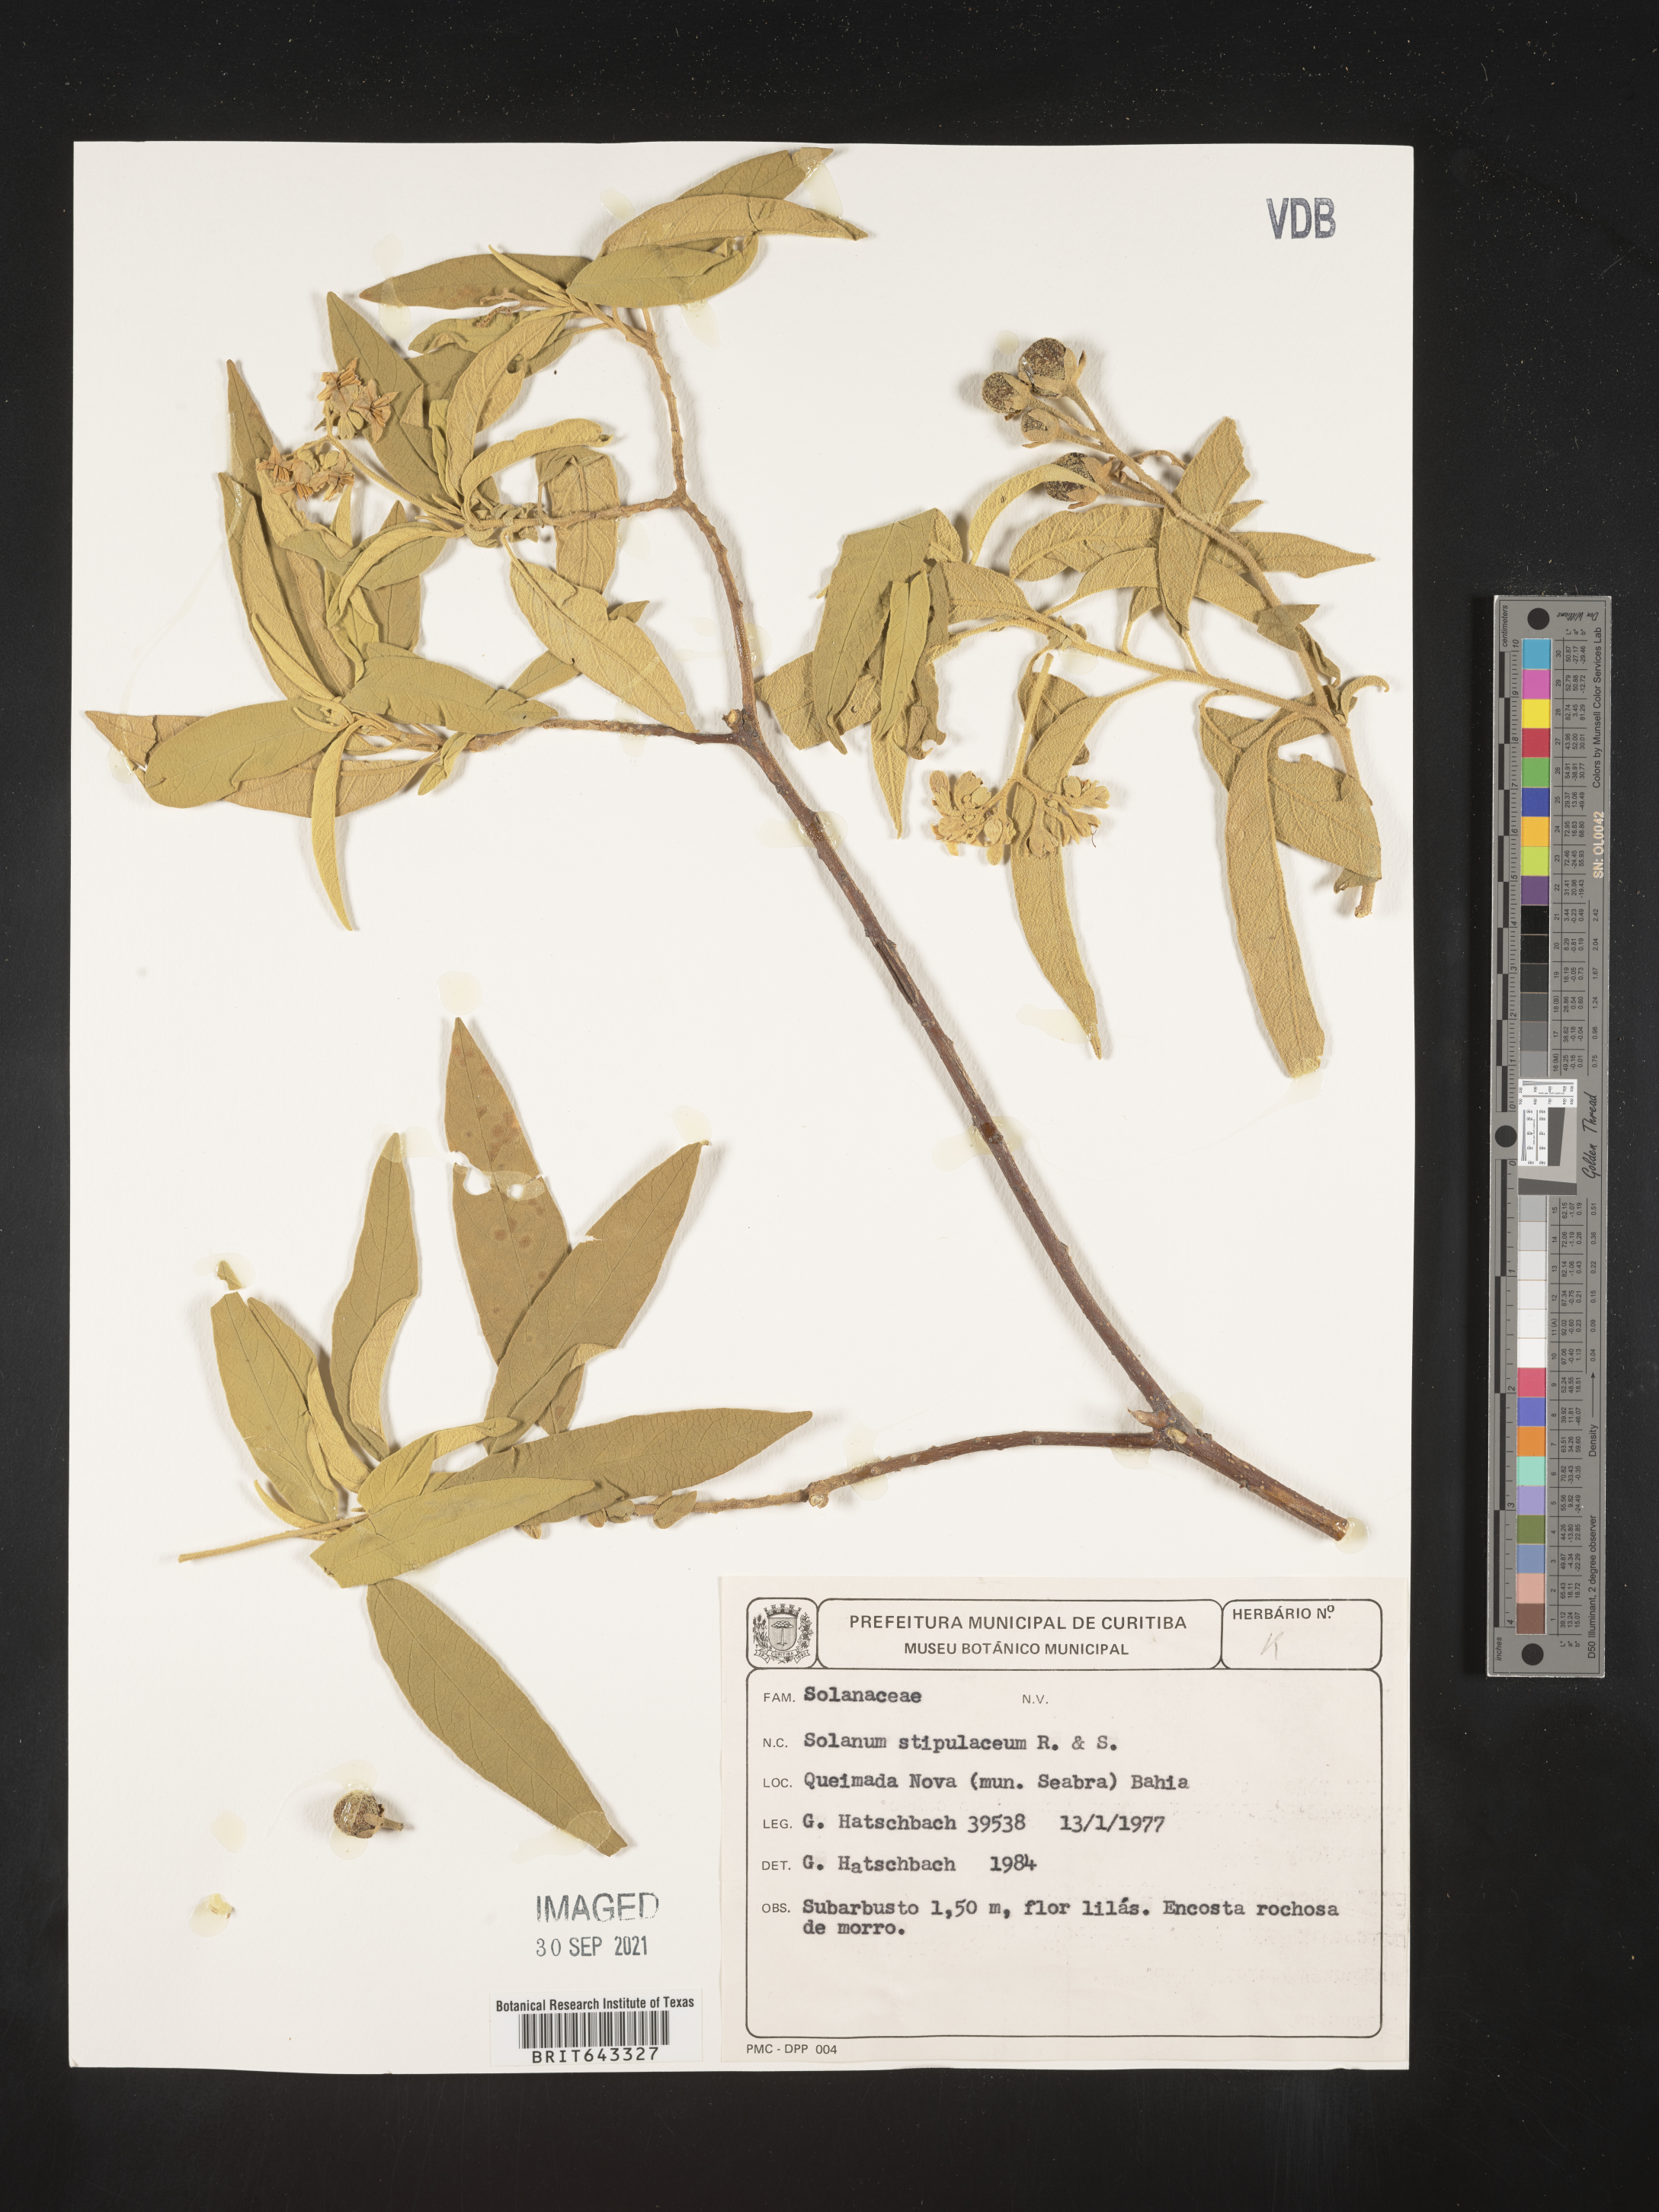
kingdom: Plantae
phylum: Tracheophyta
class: Magnoliopsida
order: Solanales
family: Solanaceae
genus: Solanum
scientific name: Solanum
